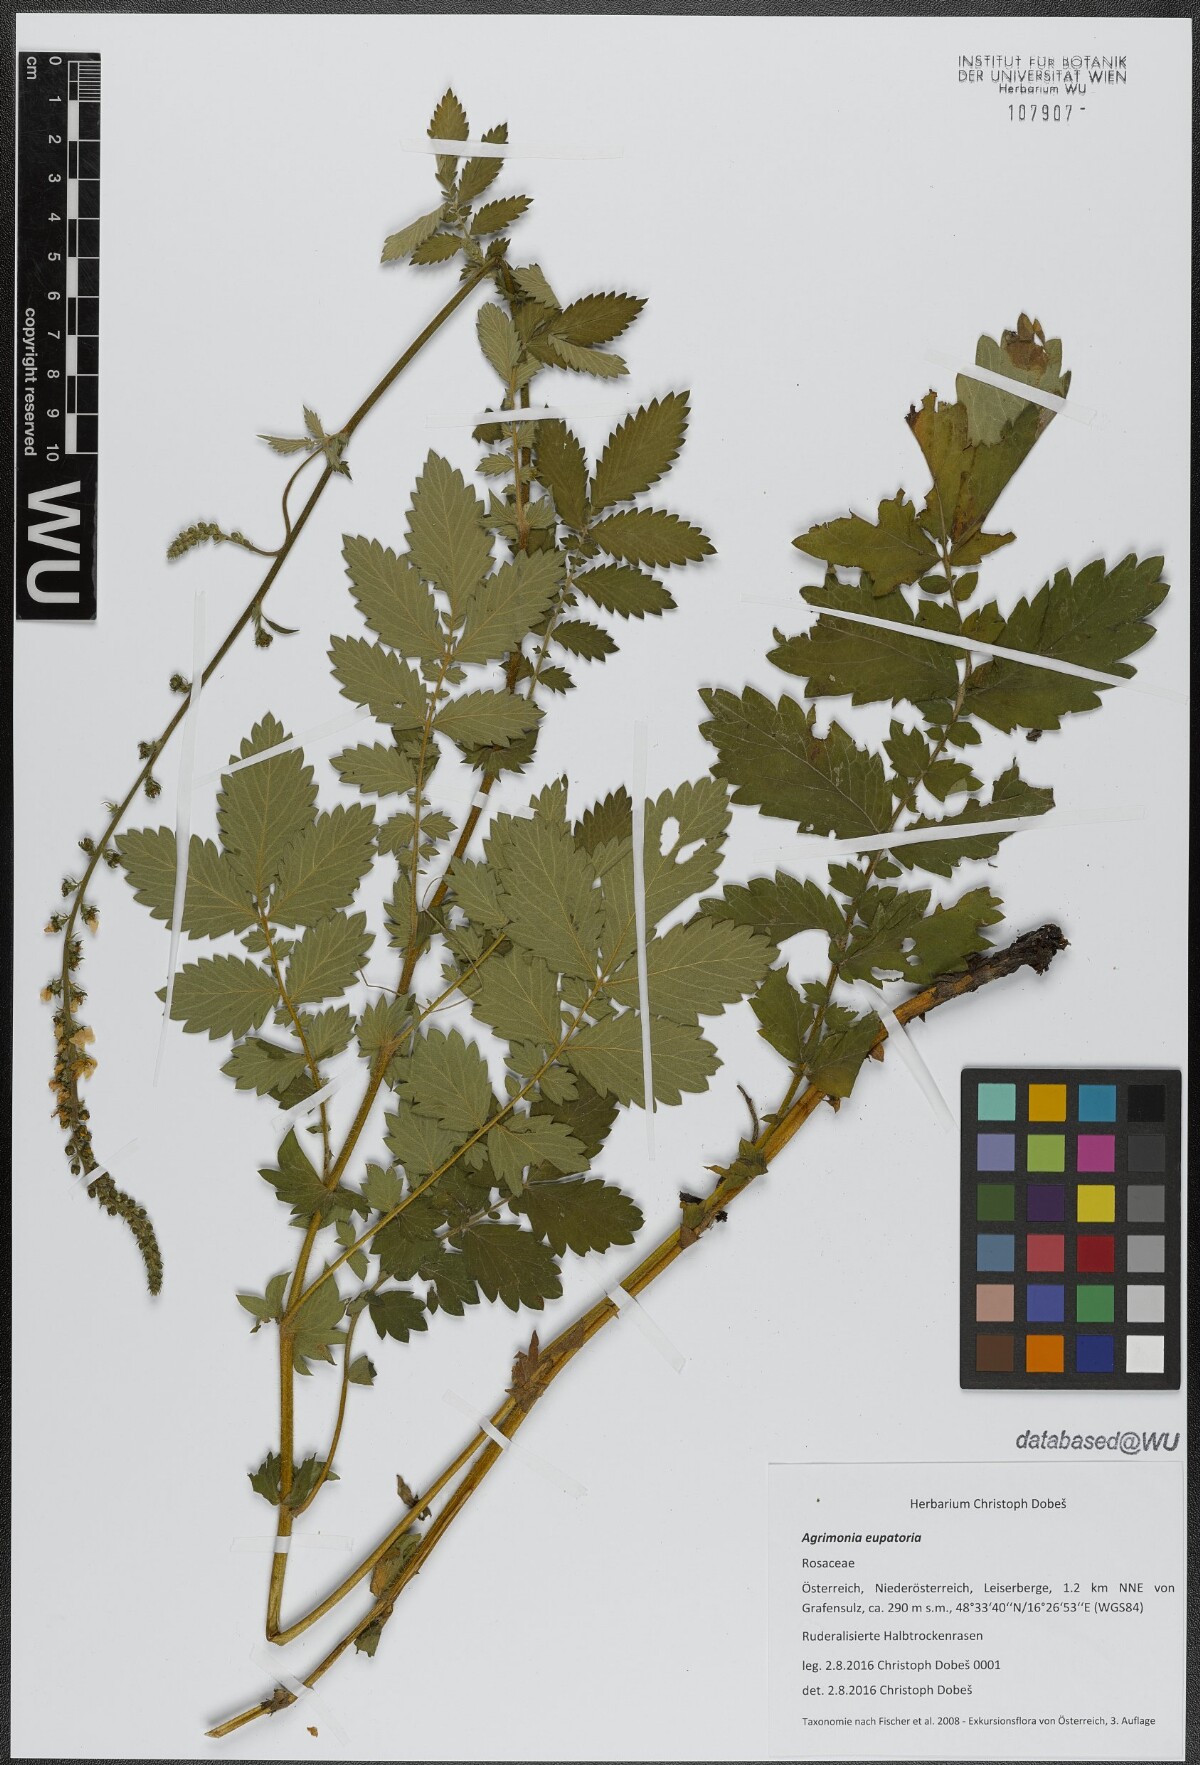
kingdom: Plantae
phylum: Tracheophyta
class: Magnoliopsida
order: Rosales
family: Rosaceae
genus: Agrimonia
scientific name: Agrimonia eupatoria
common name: Agrimony
